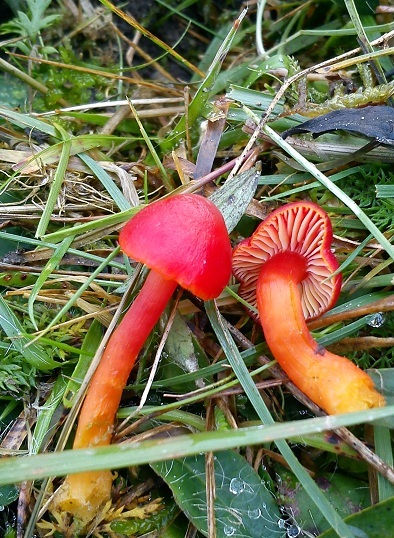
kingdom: Fungi
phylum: Basidiomycota
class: Agaricomycetes
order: Agaricales
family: Hygrophoraceae
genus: Hygrocybe
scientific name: Hygrocybe coccinea
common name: cinnober-vokshat
